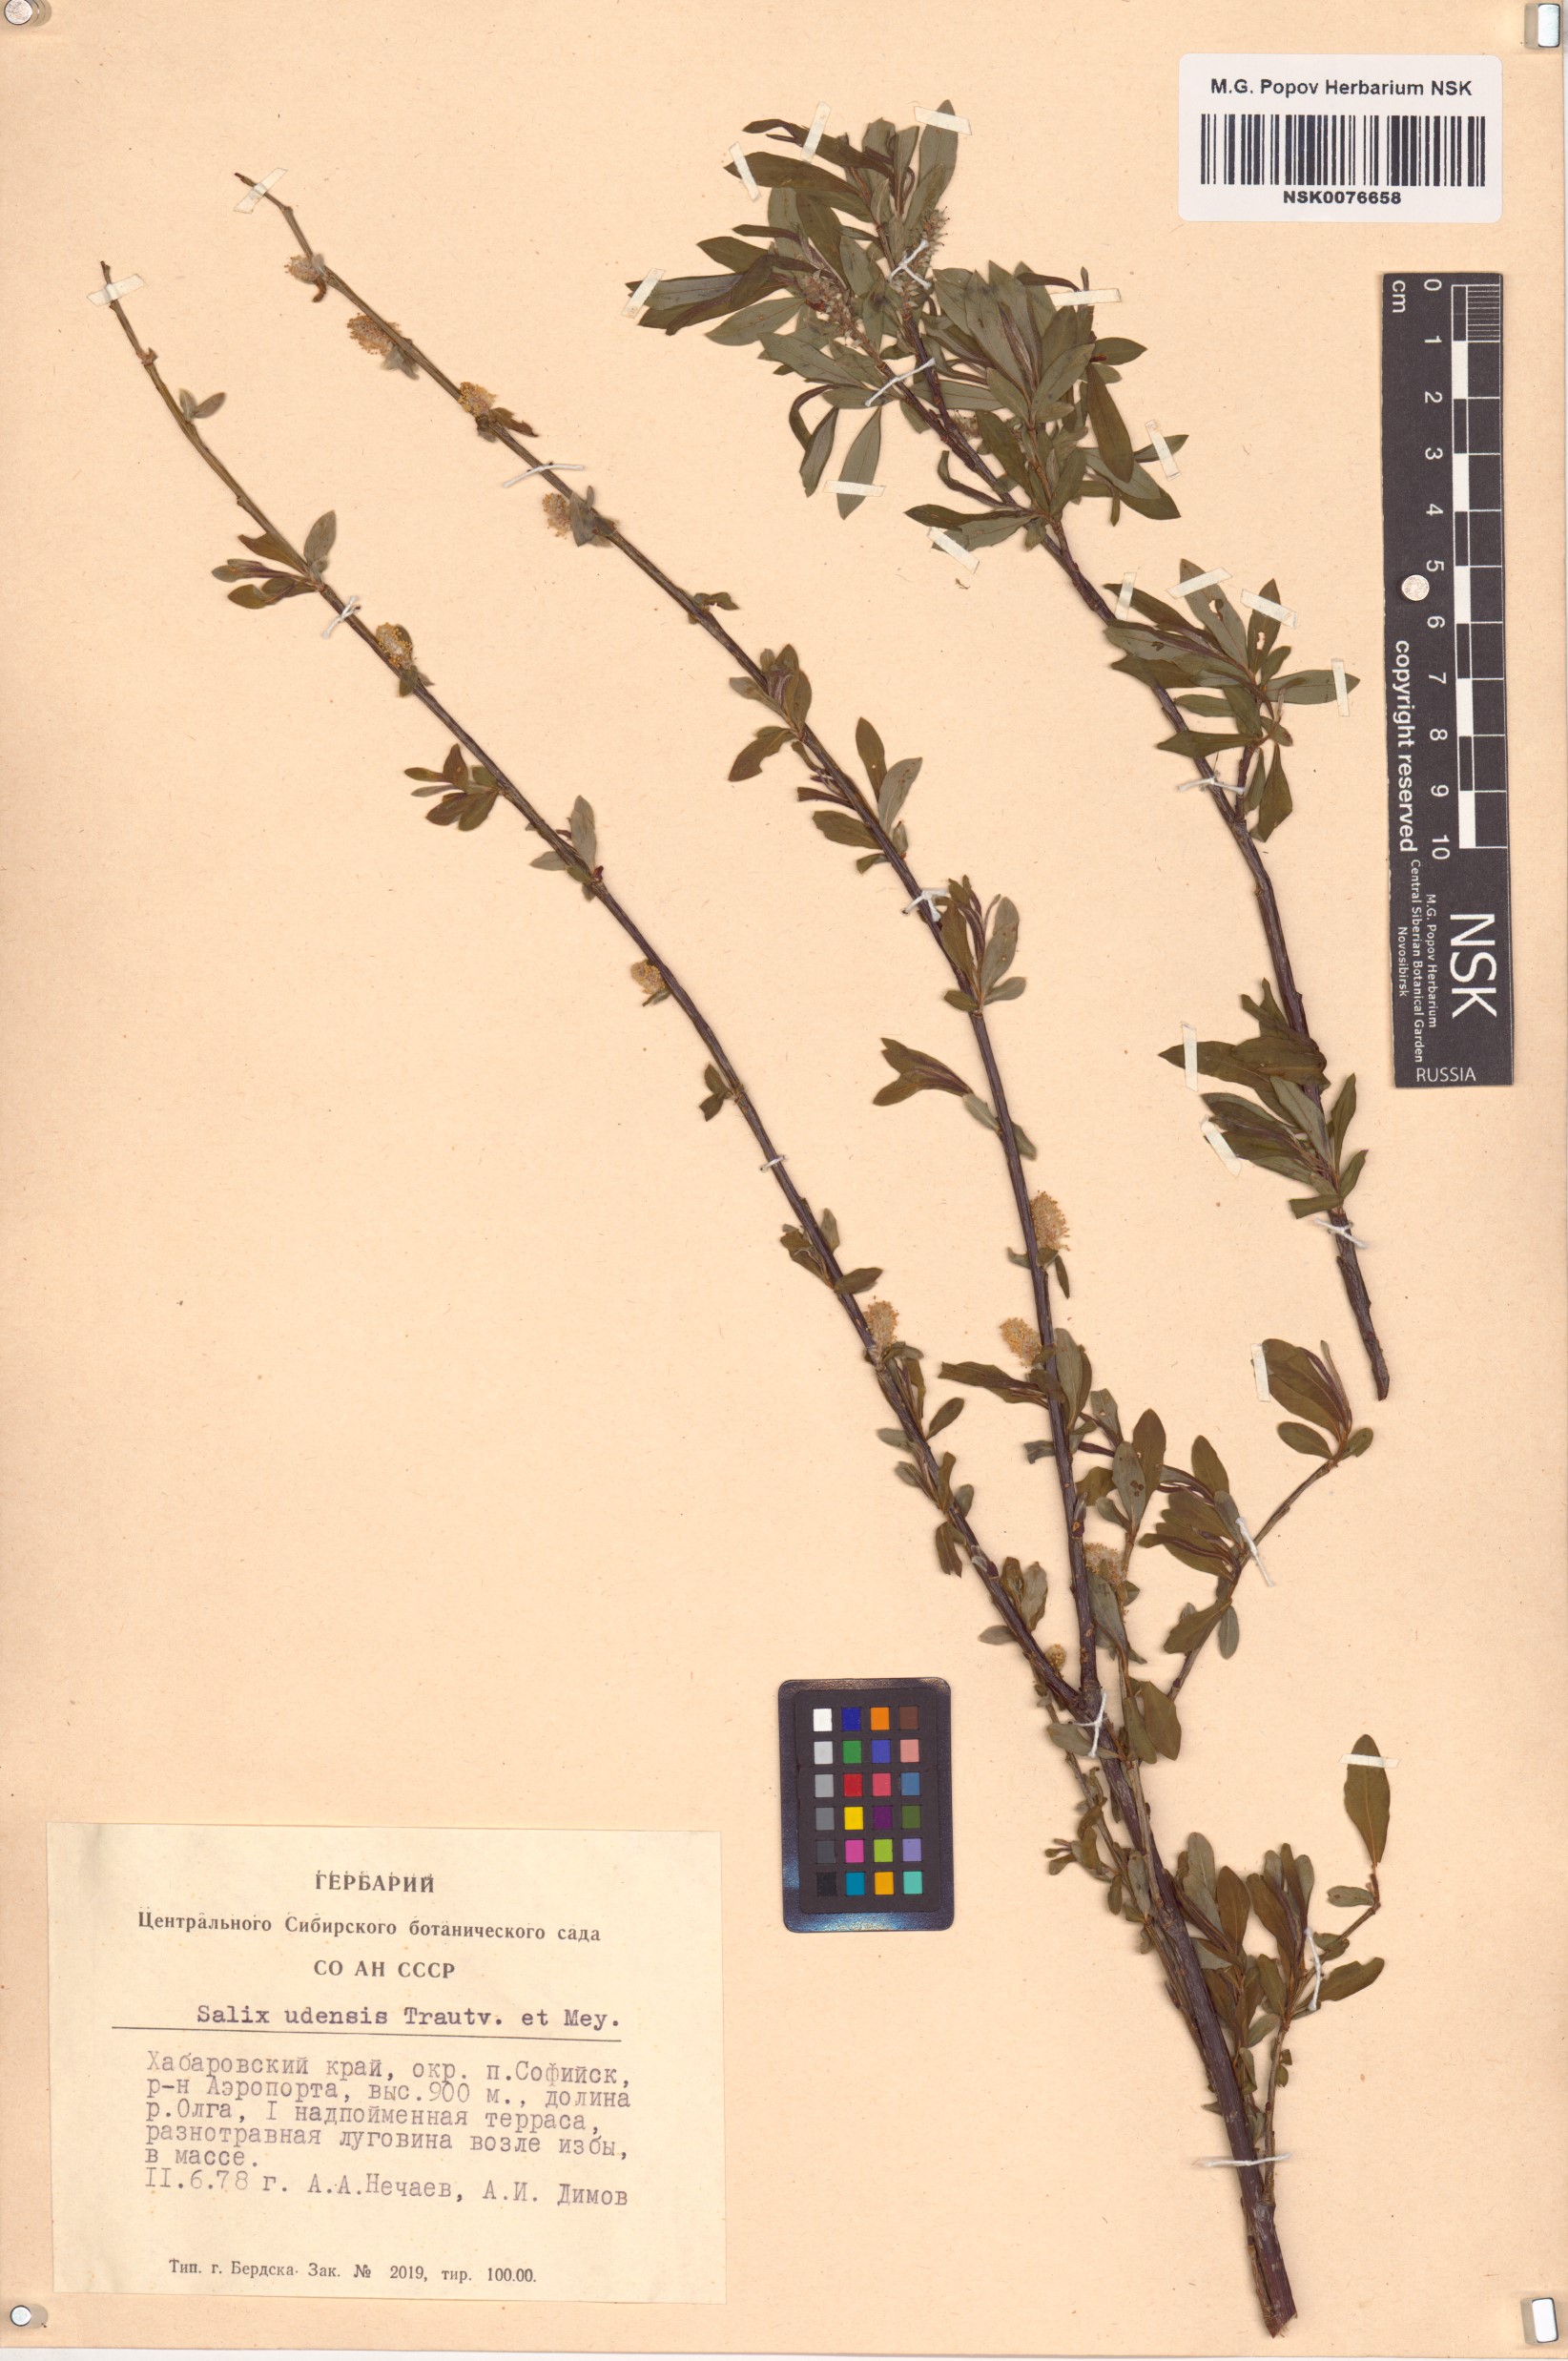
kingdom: Plantae
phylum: Tracheophyta
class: Magnoliopsida
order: Malpighiales
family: Salicaceae
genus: Salix
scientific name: Salix udensis
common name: Sachalin willow
